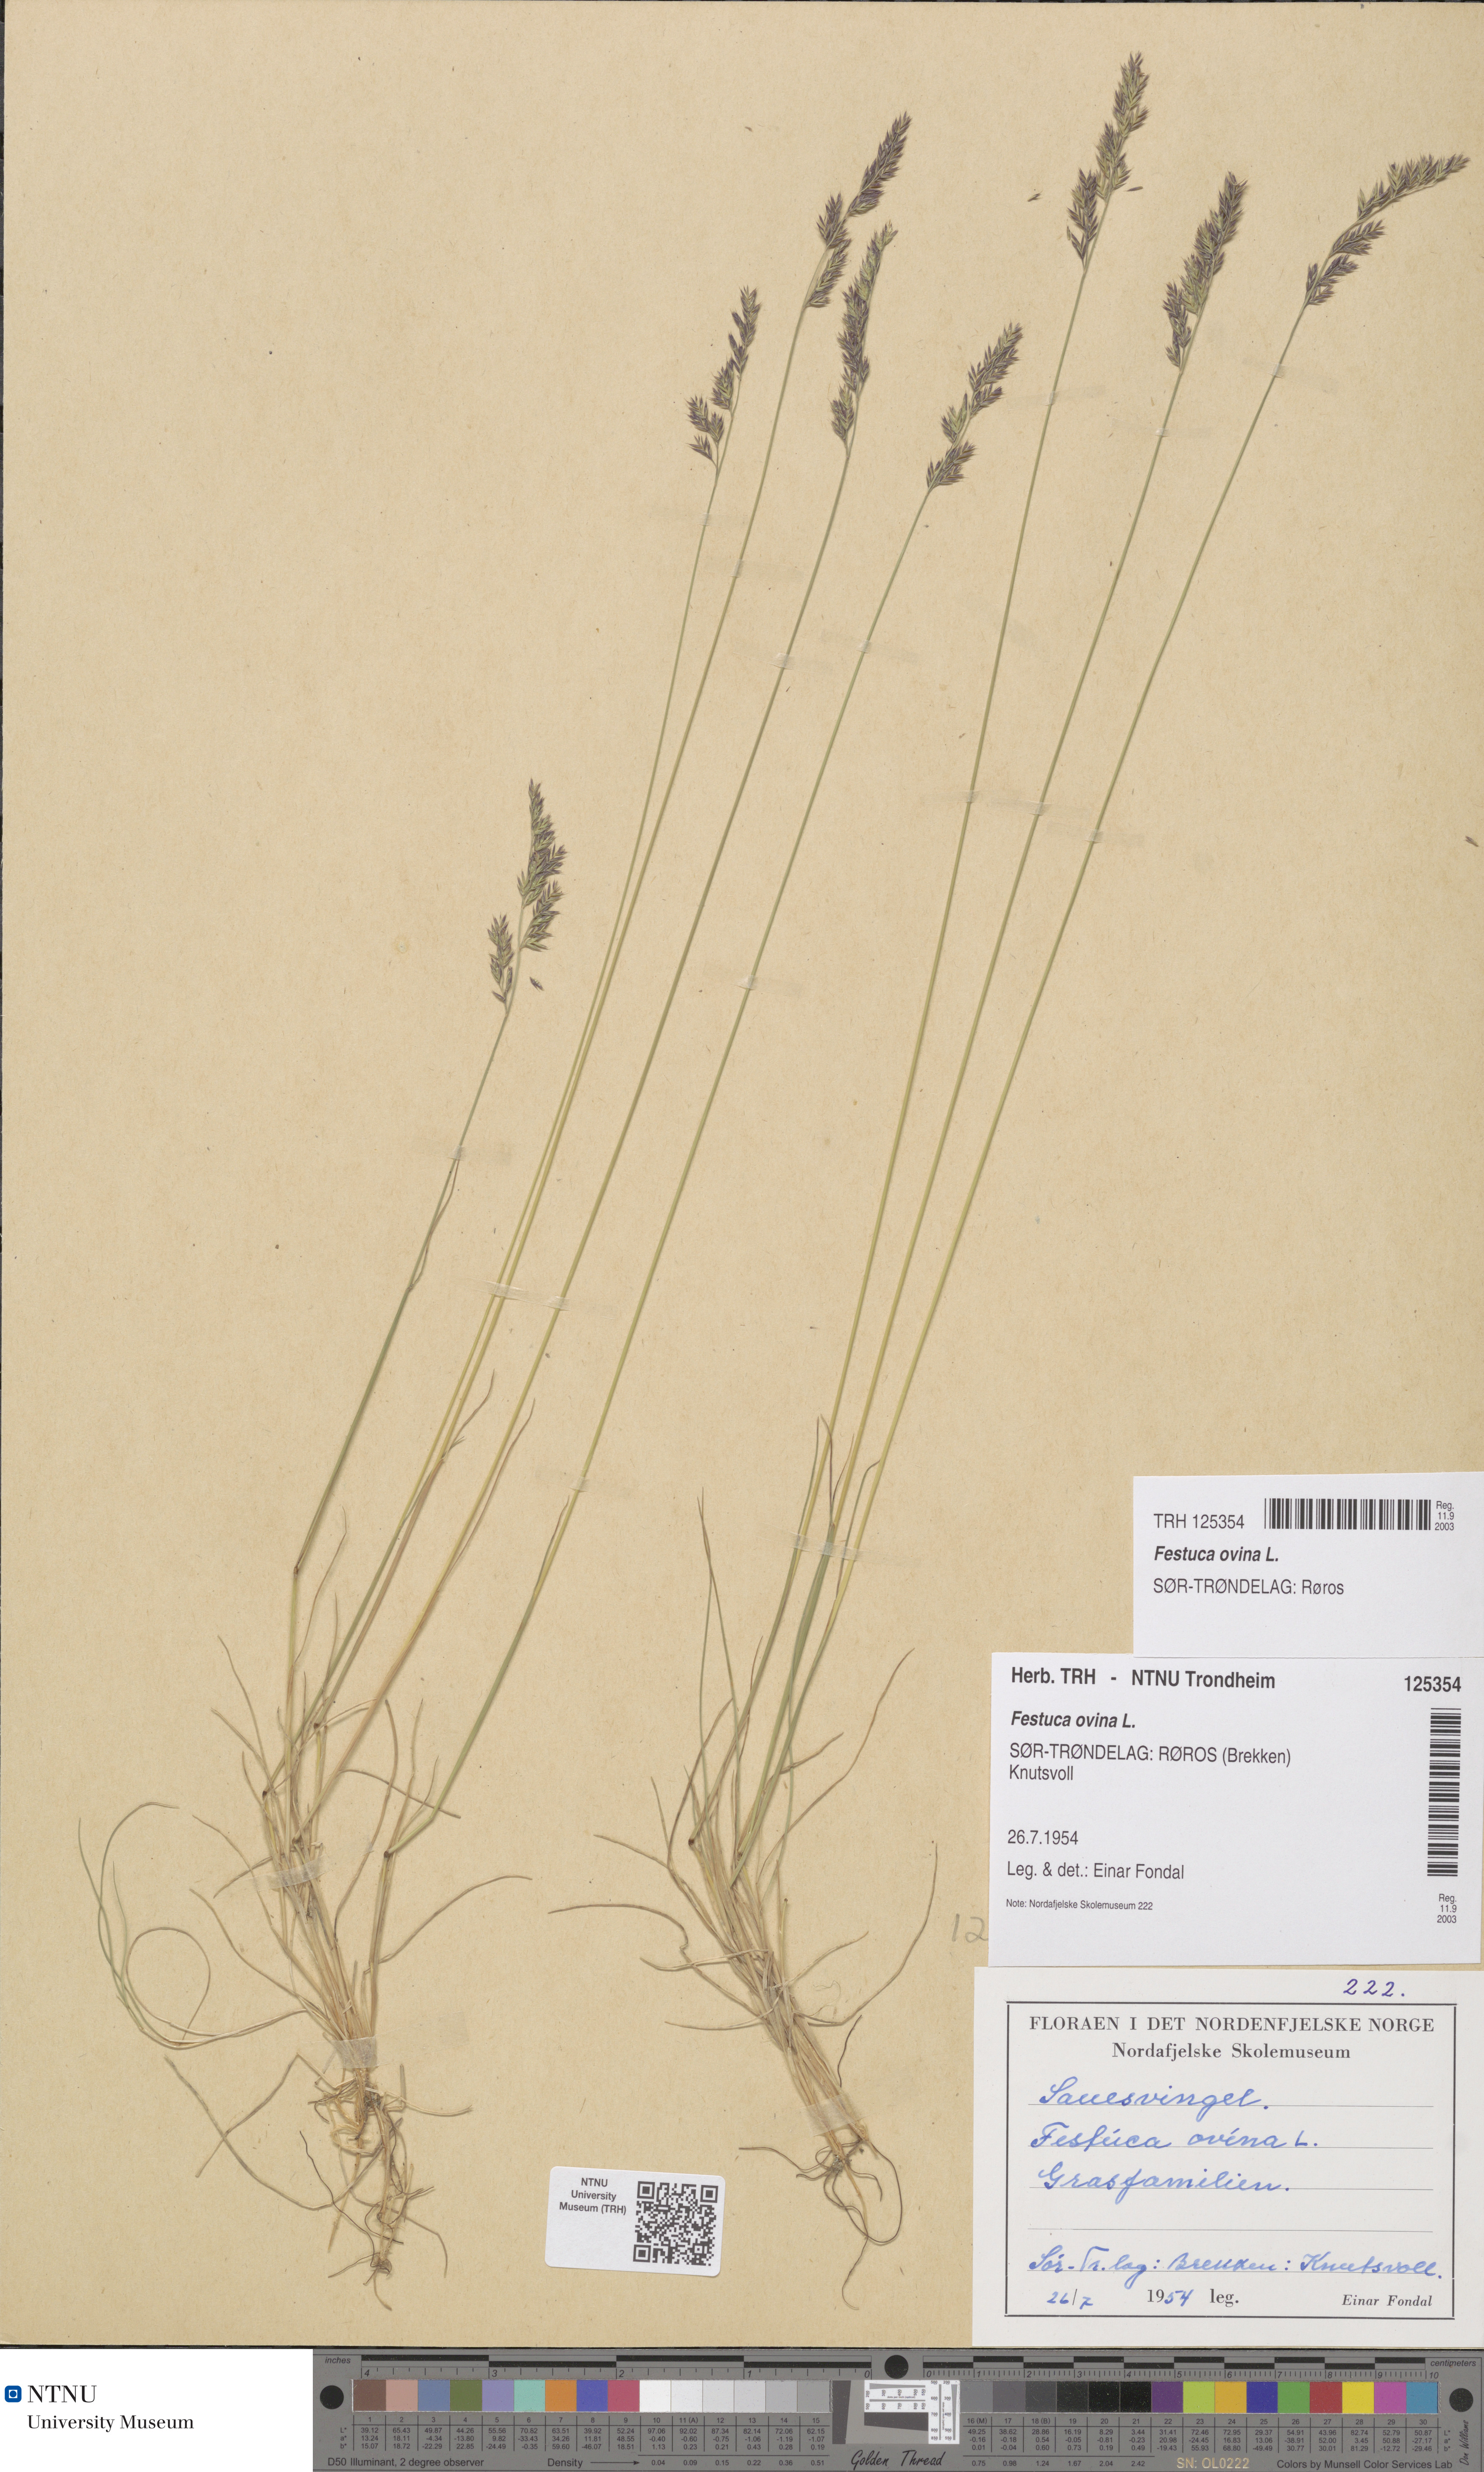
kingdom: Plantae
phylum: Tracheophyta
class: Liliopsida
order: Poales
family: Poaceae
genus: Festuca
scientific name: Festuca ovina
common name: Sheep fescue
